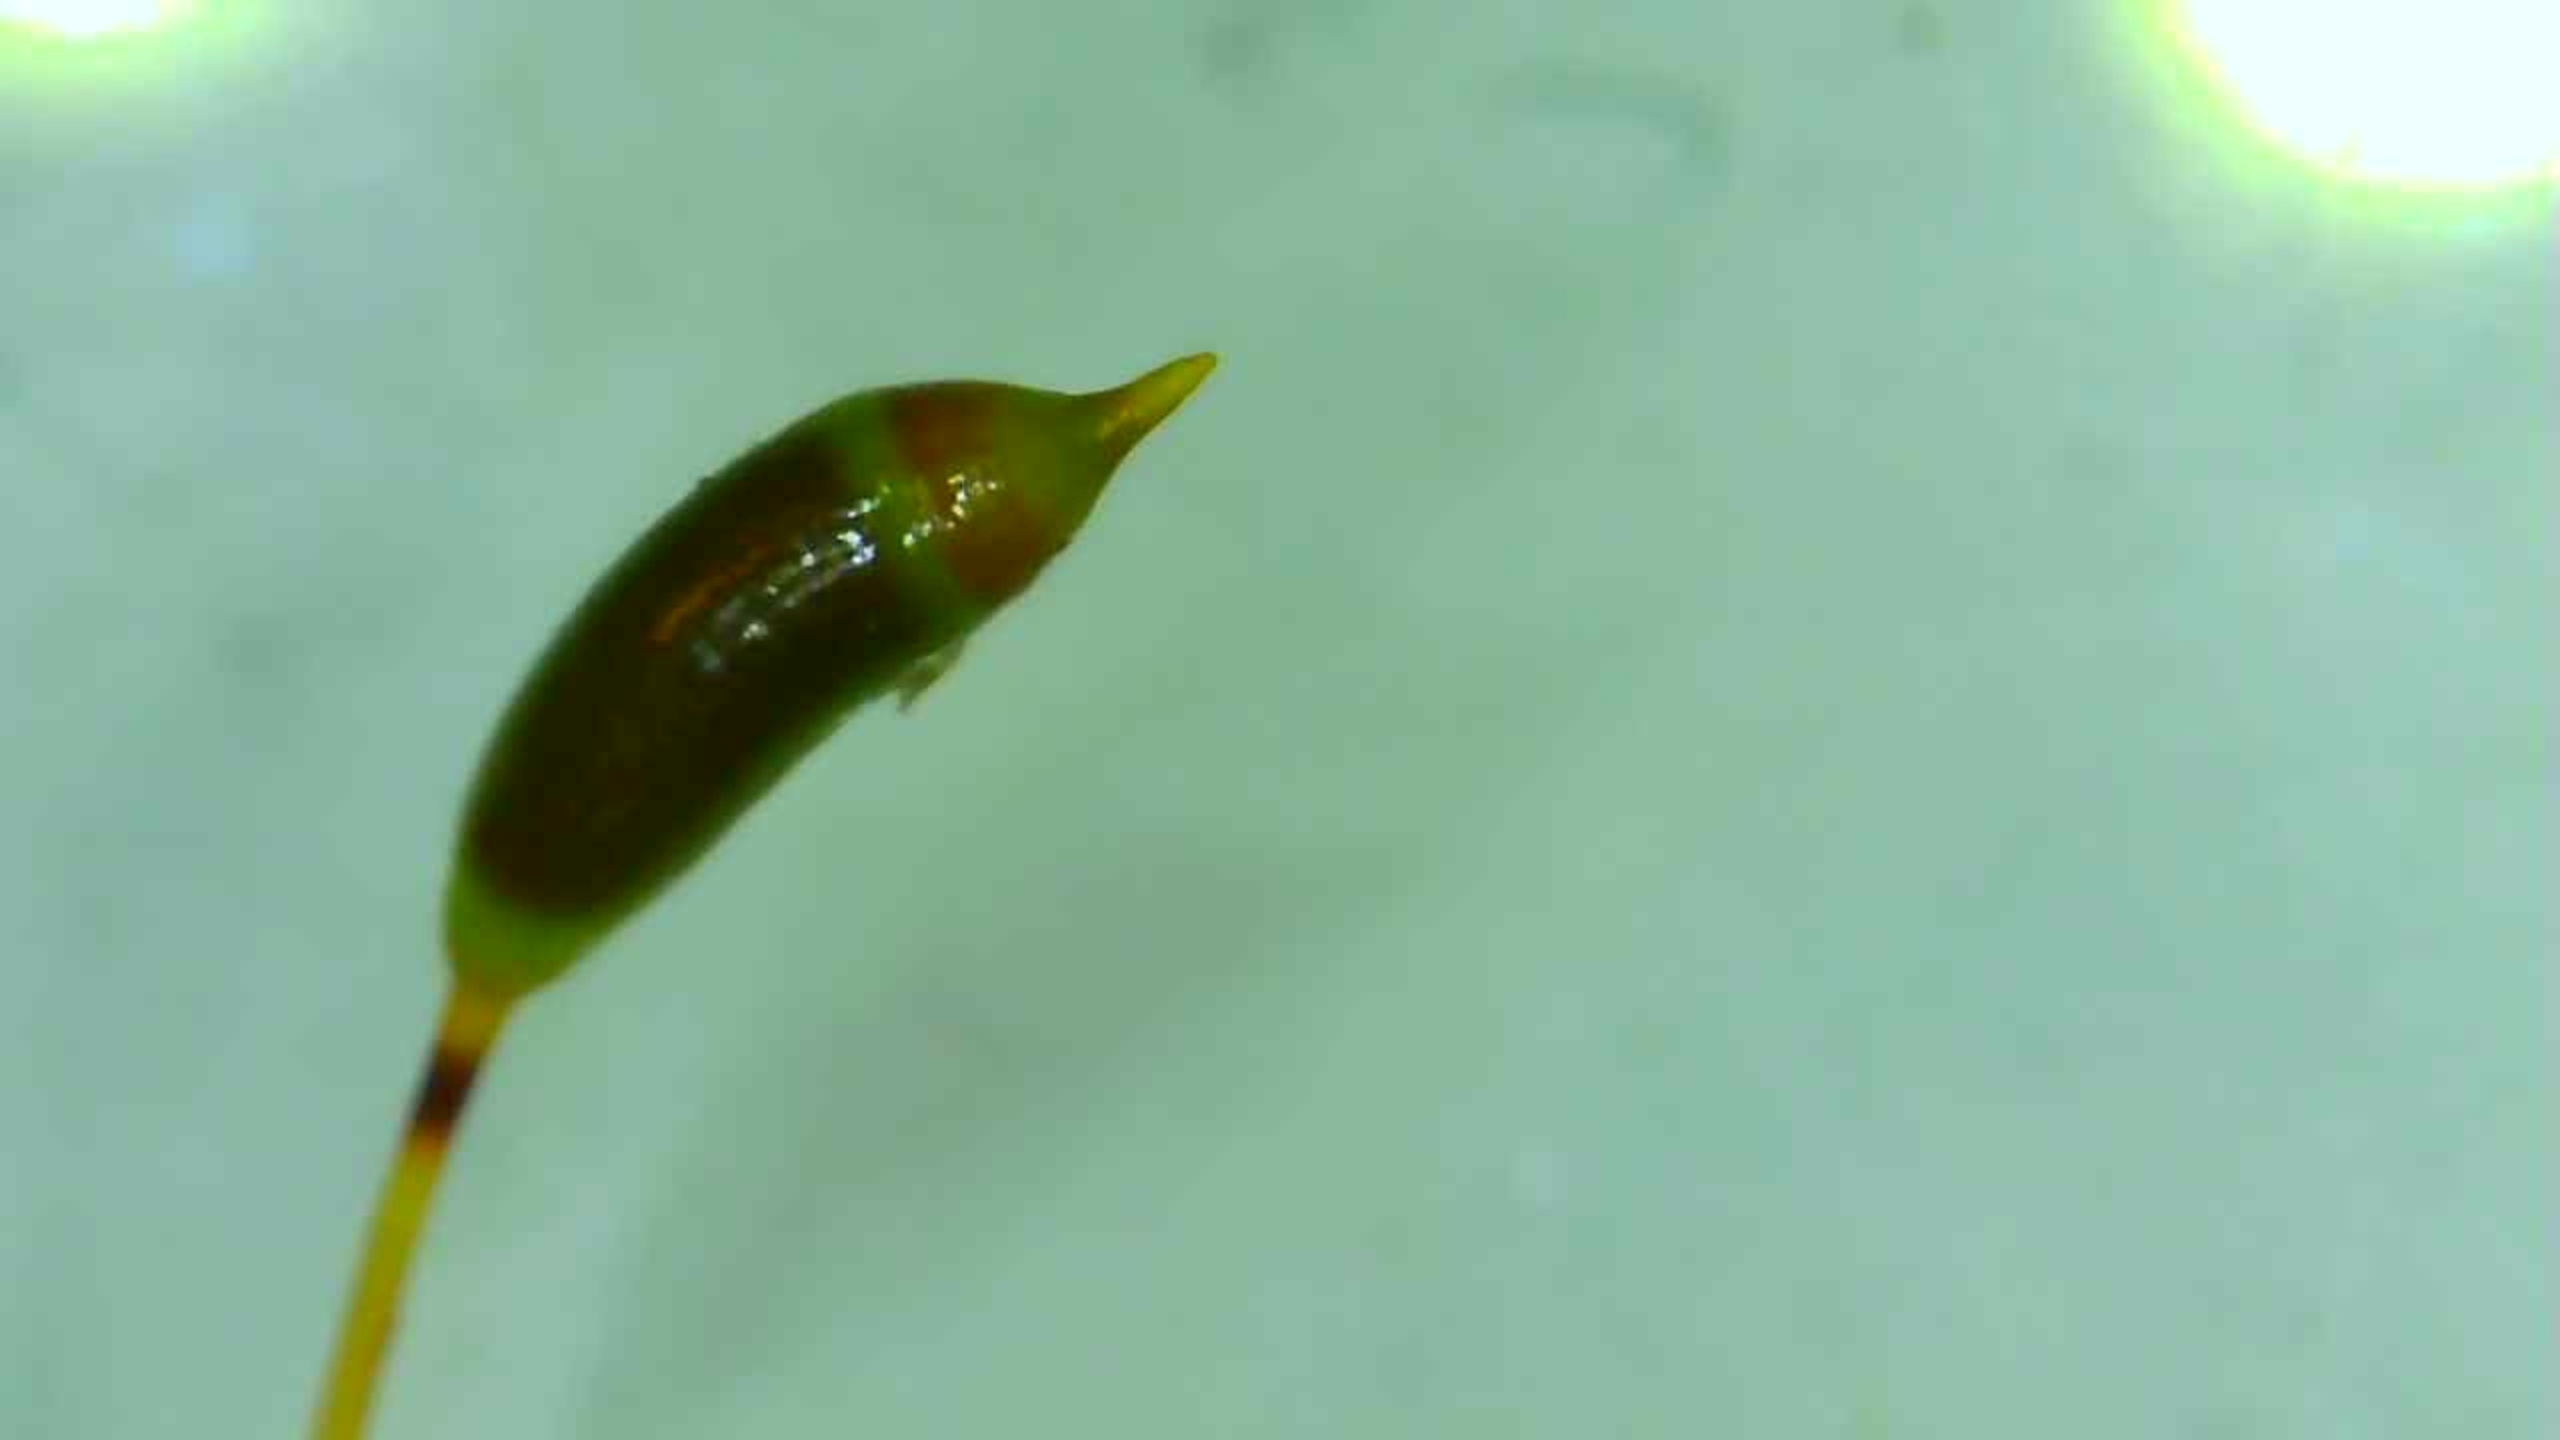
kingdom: Plantae
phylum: Bryophyta
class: Bryopsida
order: Hypnales
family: Hypnaceae
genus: Hypnum
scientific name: Hypnum cupressiforme
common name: Almindelig cypresmos
